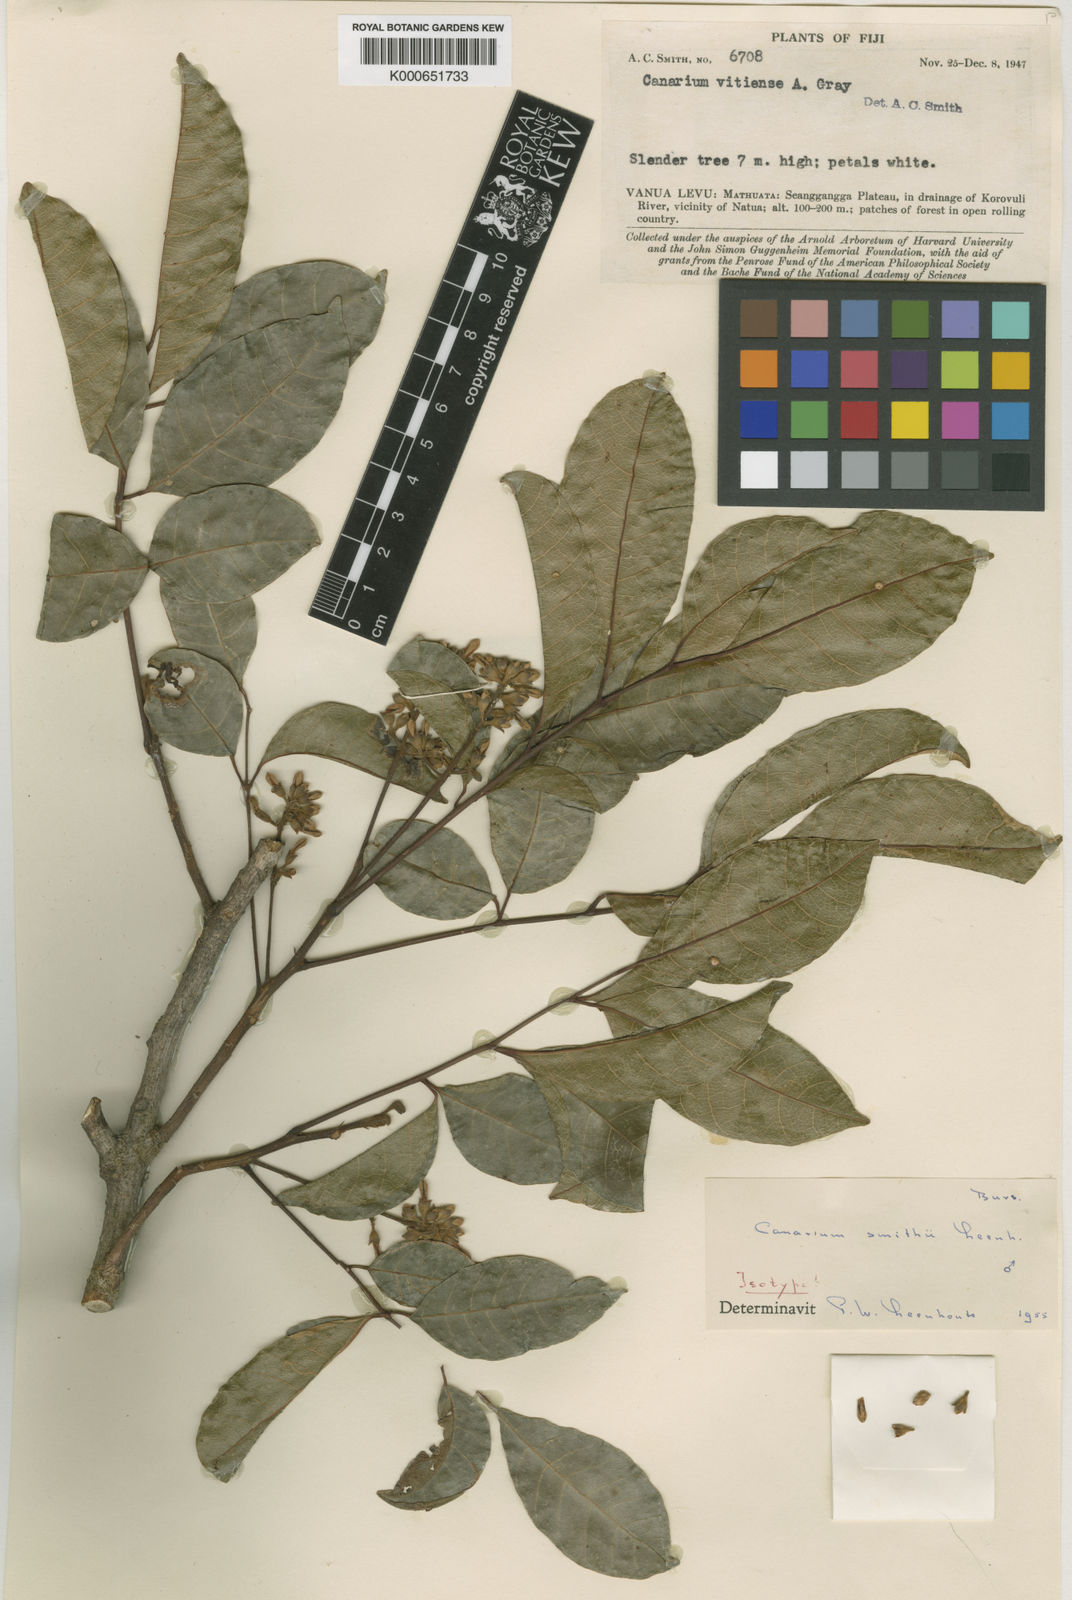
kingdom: Plantae
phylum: Tracheophyta
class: Magnoliopsida
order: Sapindales
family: Burseraceae
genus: Canarium
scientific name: Canarium vitiense
